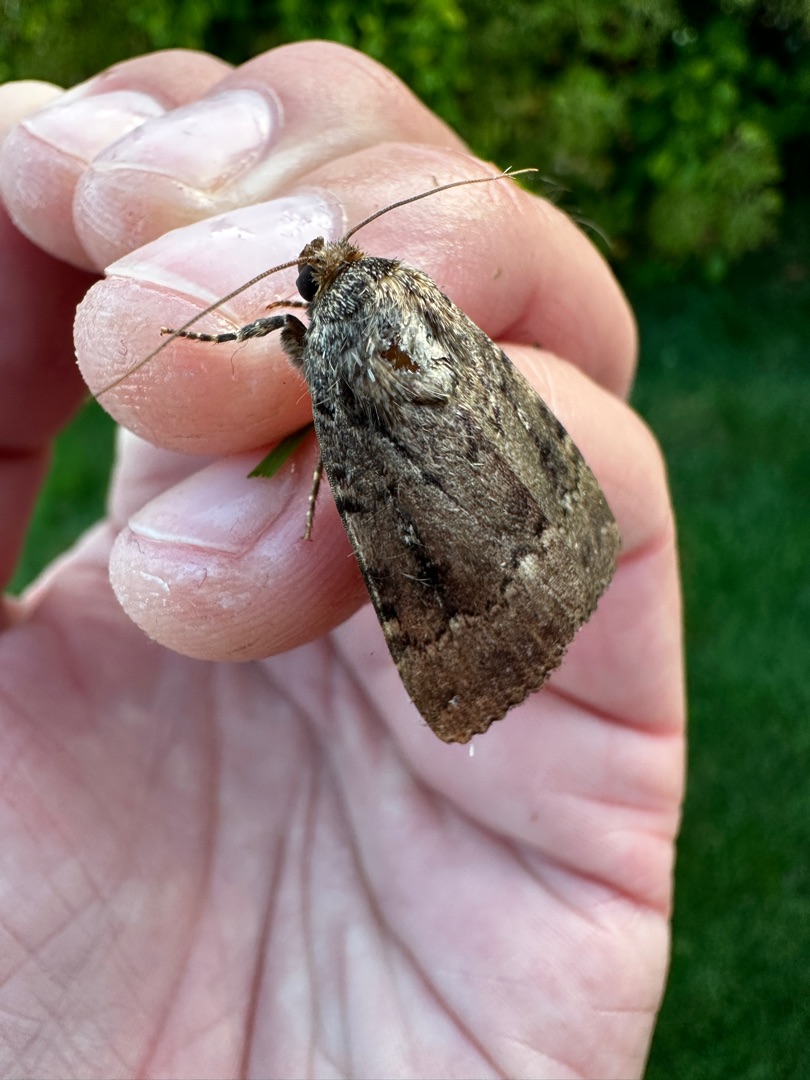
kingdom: Animalia
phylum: Arthropoda
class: Insecta
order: Lepidoptera
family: Noctuidae
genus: Amphipyra
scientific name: Amphipyra pyramidea
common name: Pyramideugle
